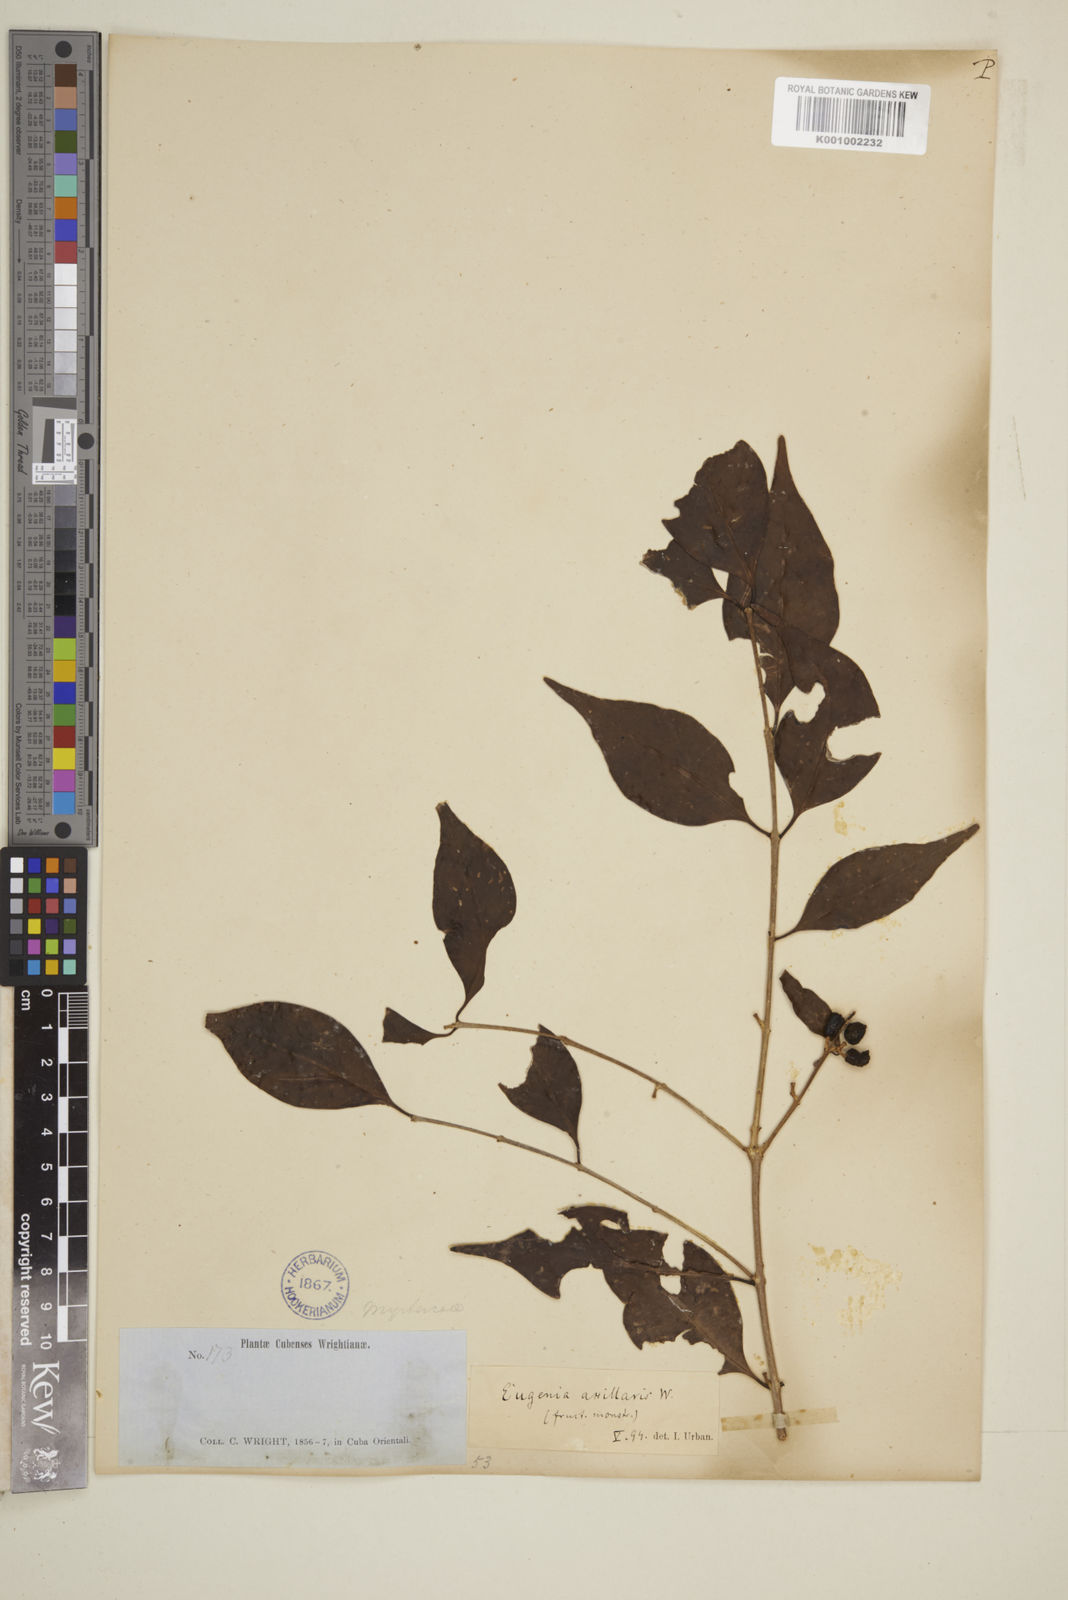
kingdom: Plantae
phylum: Tracheophyta
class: Magnoliopsida
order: Myrtales
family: Myrtaceae
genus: Eugenia
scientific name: Eugenia axillaris
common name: Choaky berry
